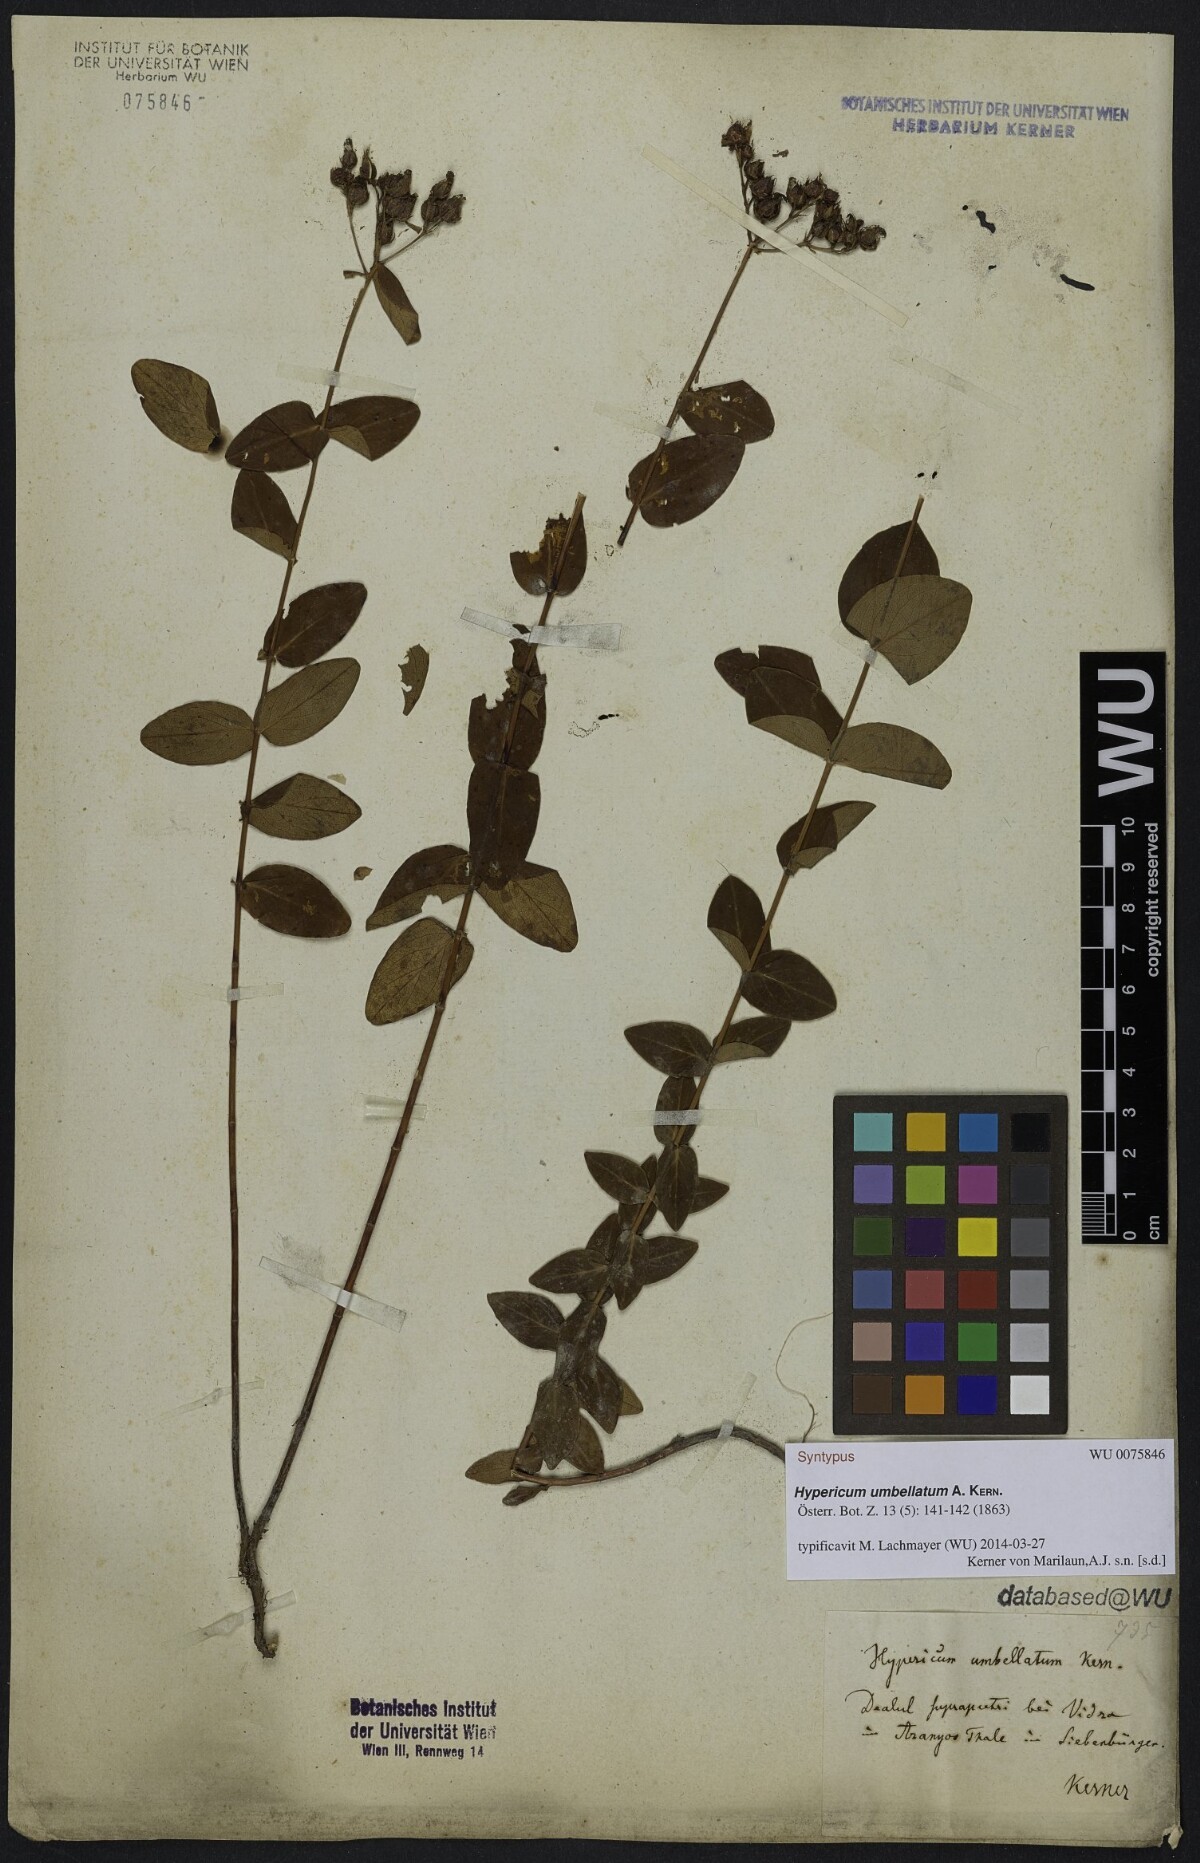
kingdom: Plantae
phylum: Tracheophyta
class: Magnoliopsida
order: Malpighiales
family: Hypericaceae
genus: Hypericum
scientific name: Hypericum umbellatum
